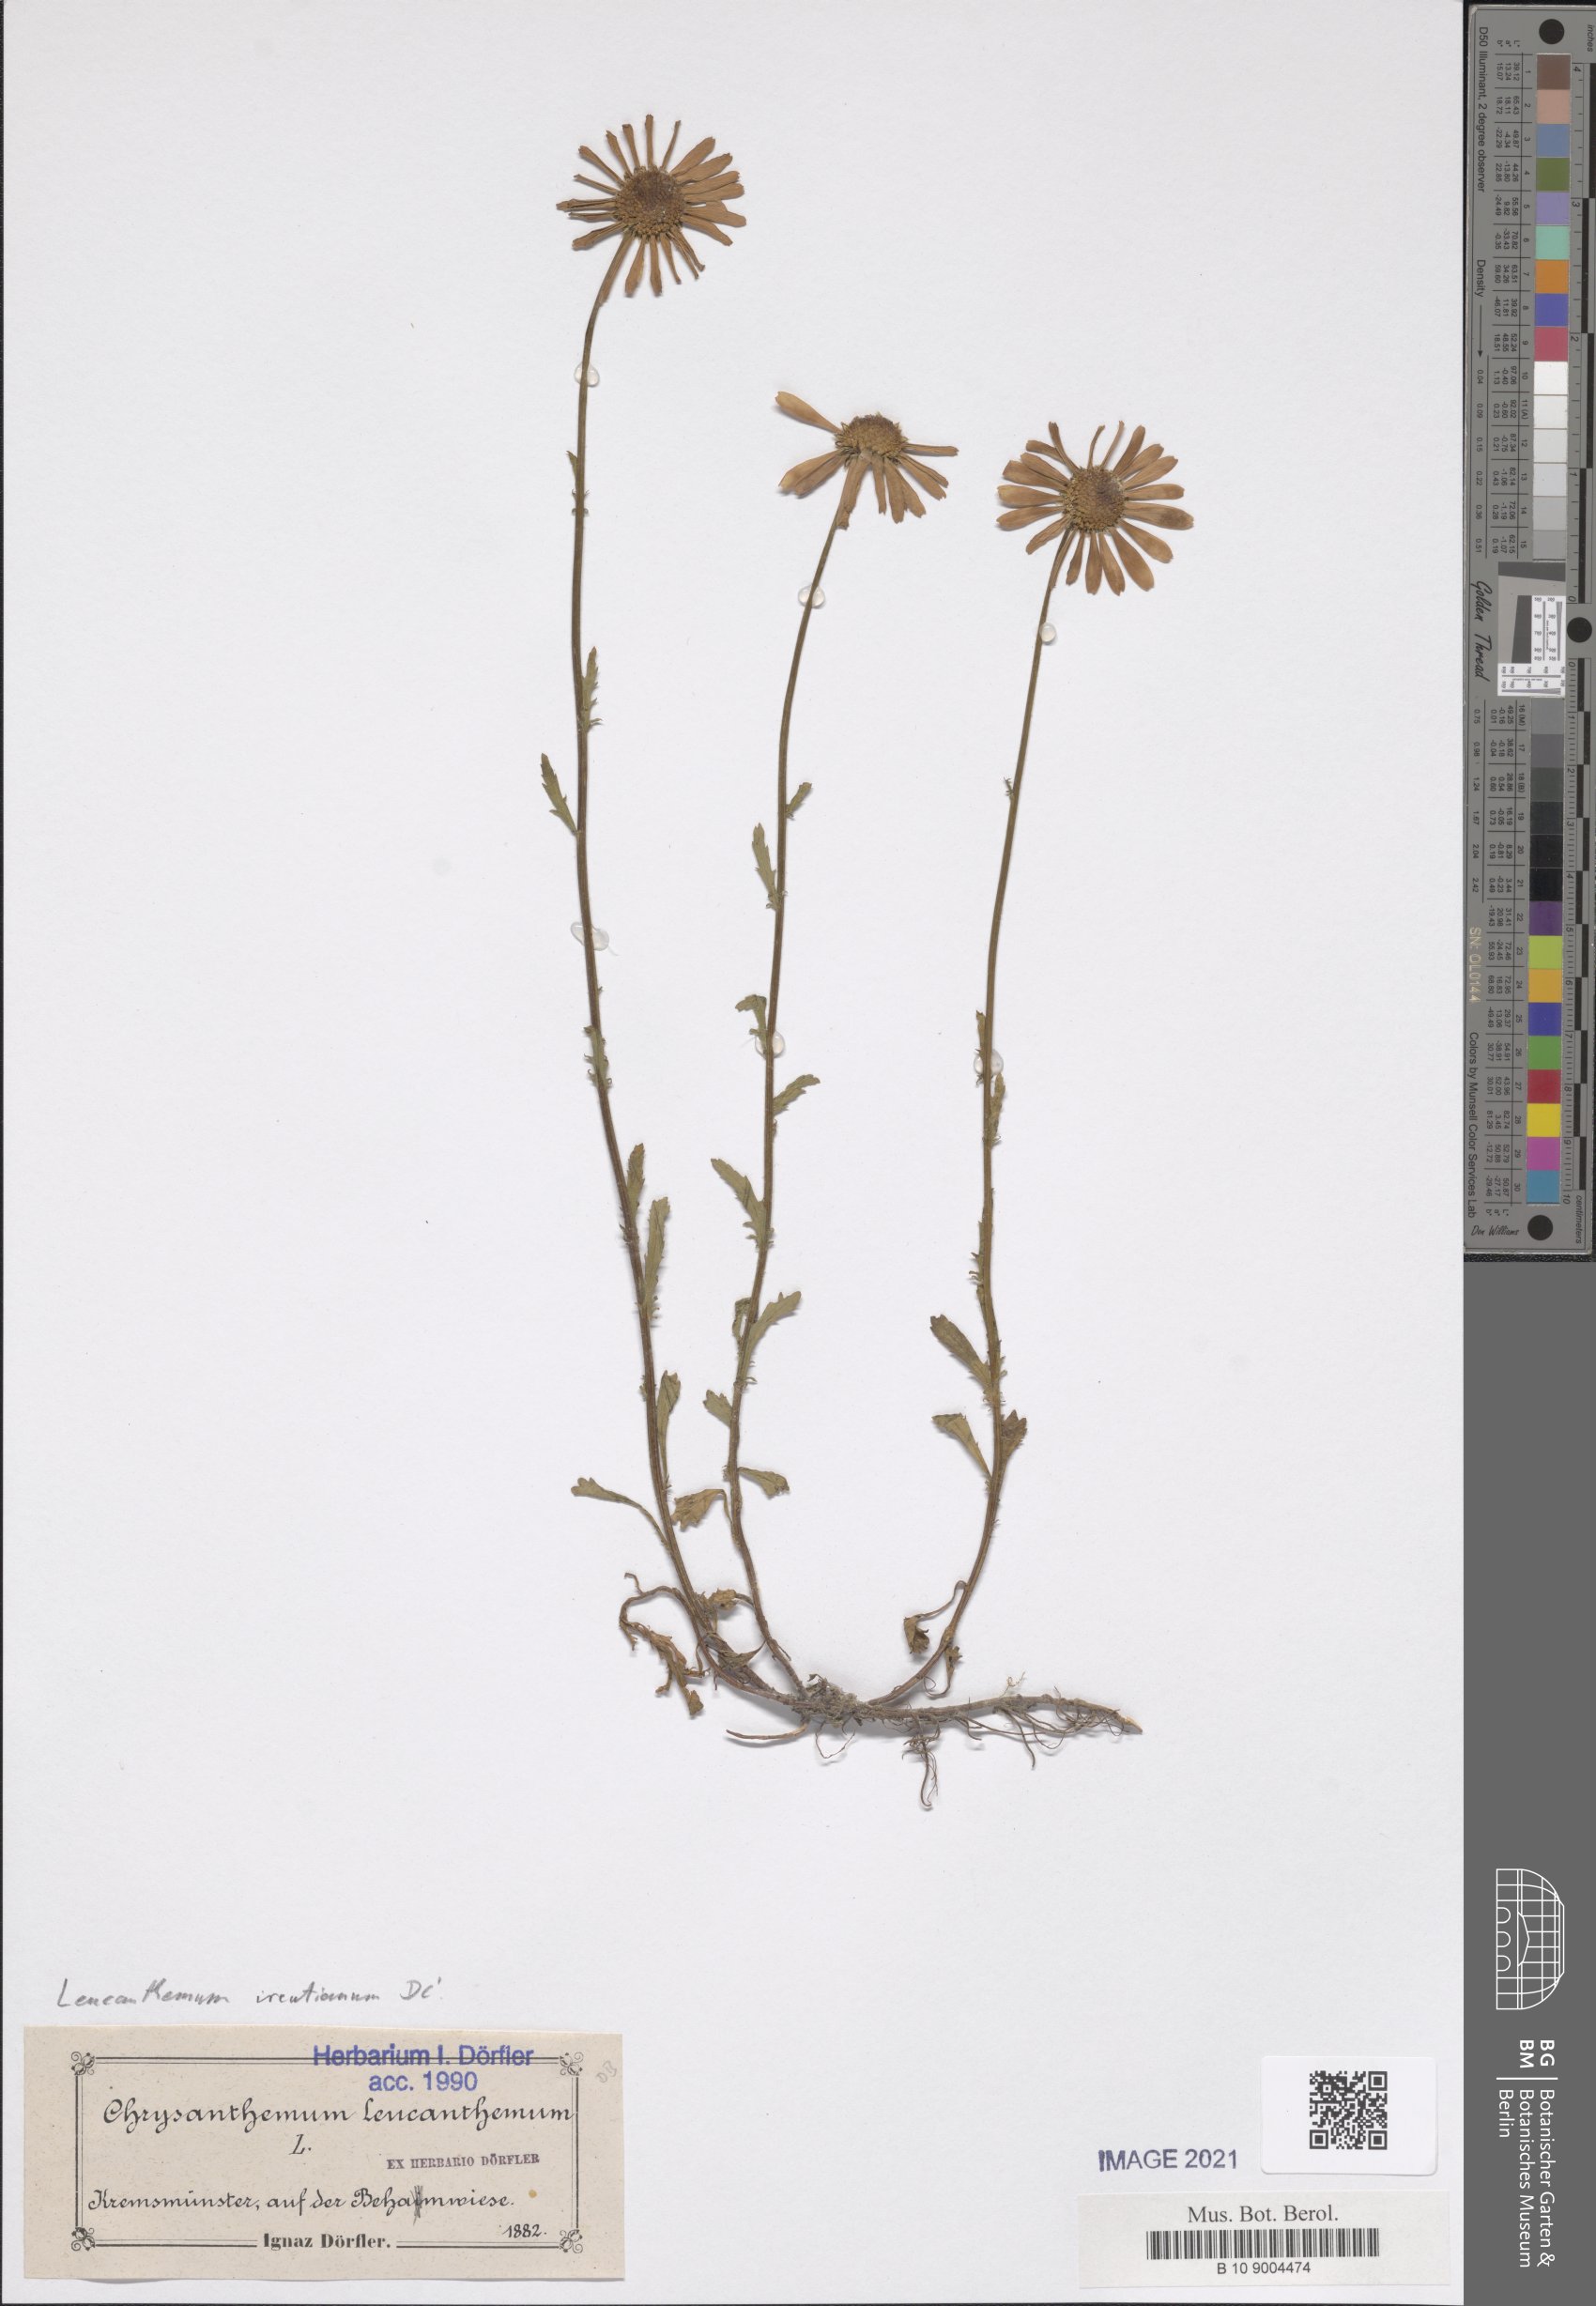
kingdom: Plantae
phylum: Tracheophyta
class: Magnoliopsida
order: Asterales
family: Asteraceae
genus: Leucanthemum
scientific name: Leucanthemum ircutianum
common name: Daisy
